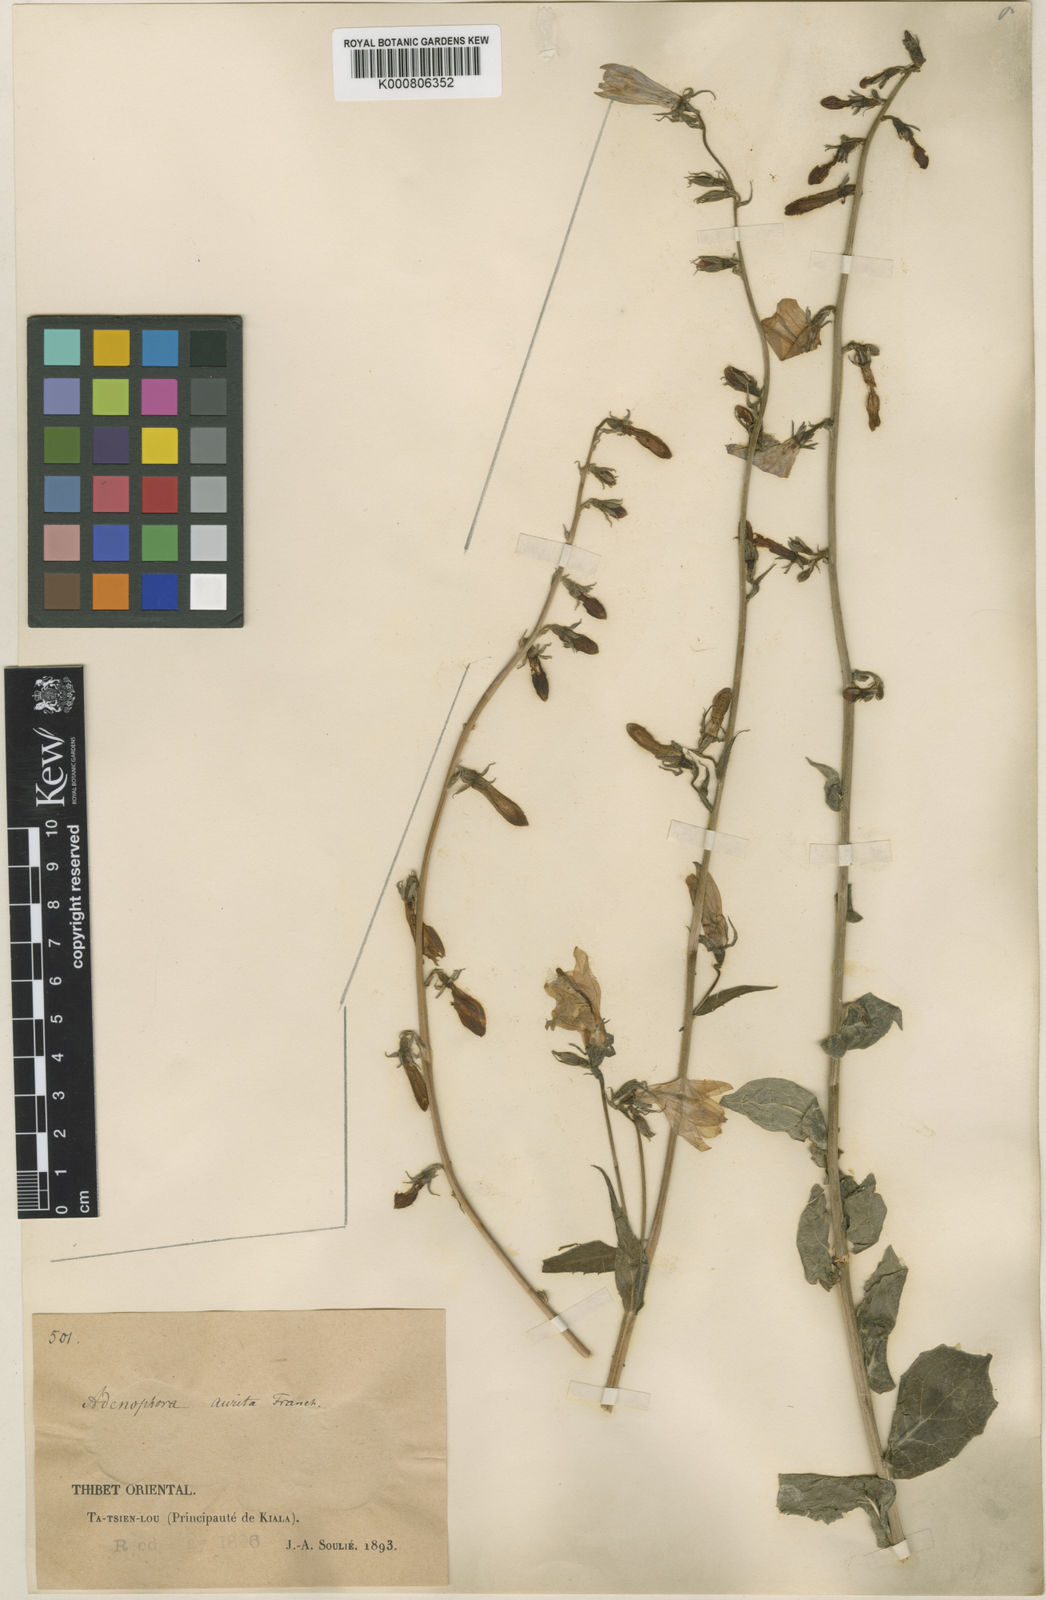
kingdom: Plantae
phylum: Tracheophyta
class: Magnoliopsida
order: Asterales
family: Campanulaceae
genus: Adenophora
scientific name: Adenophora stricta
